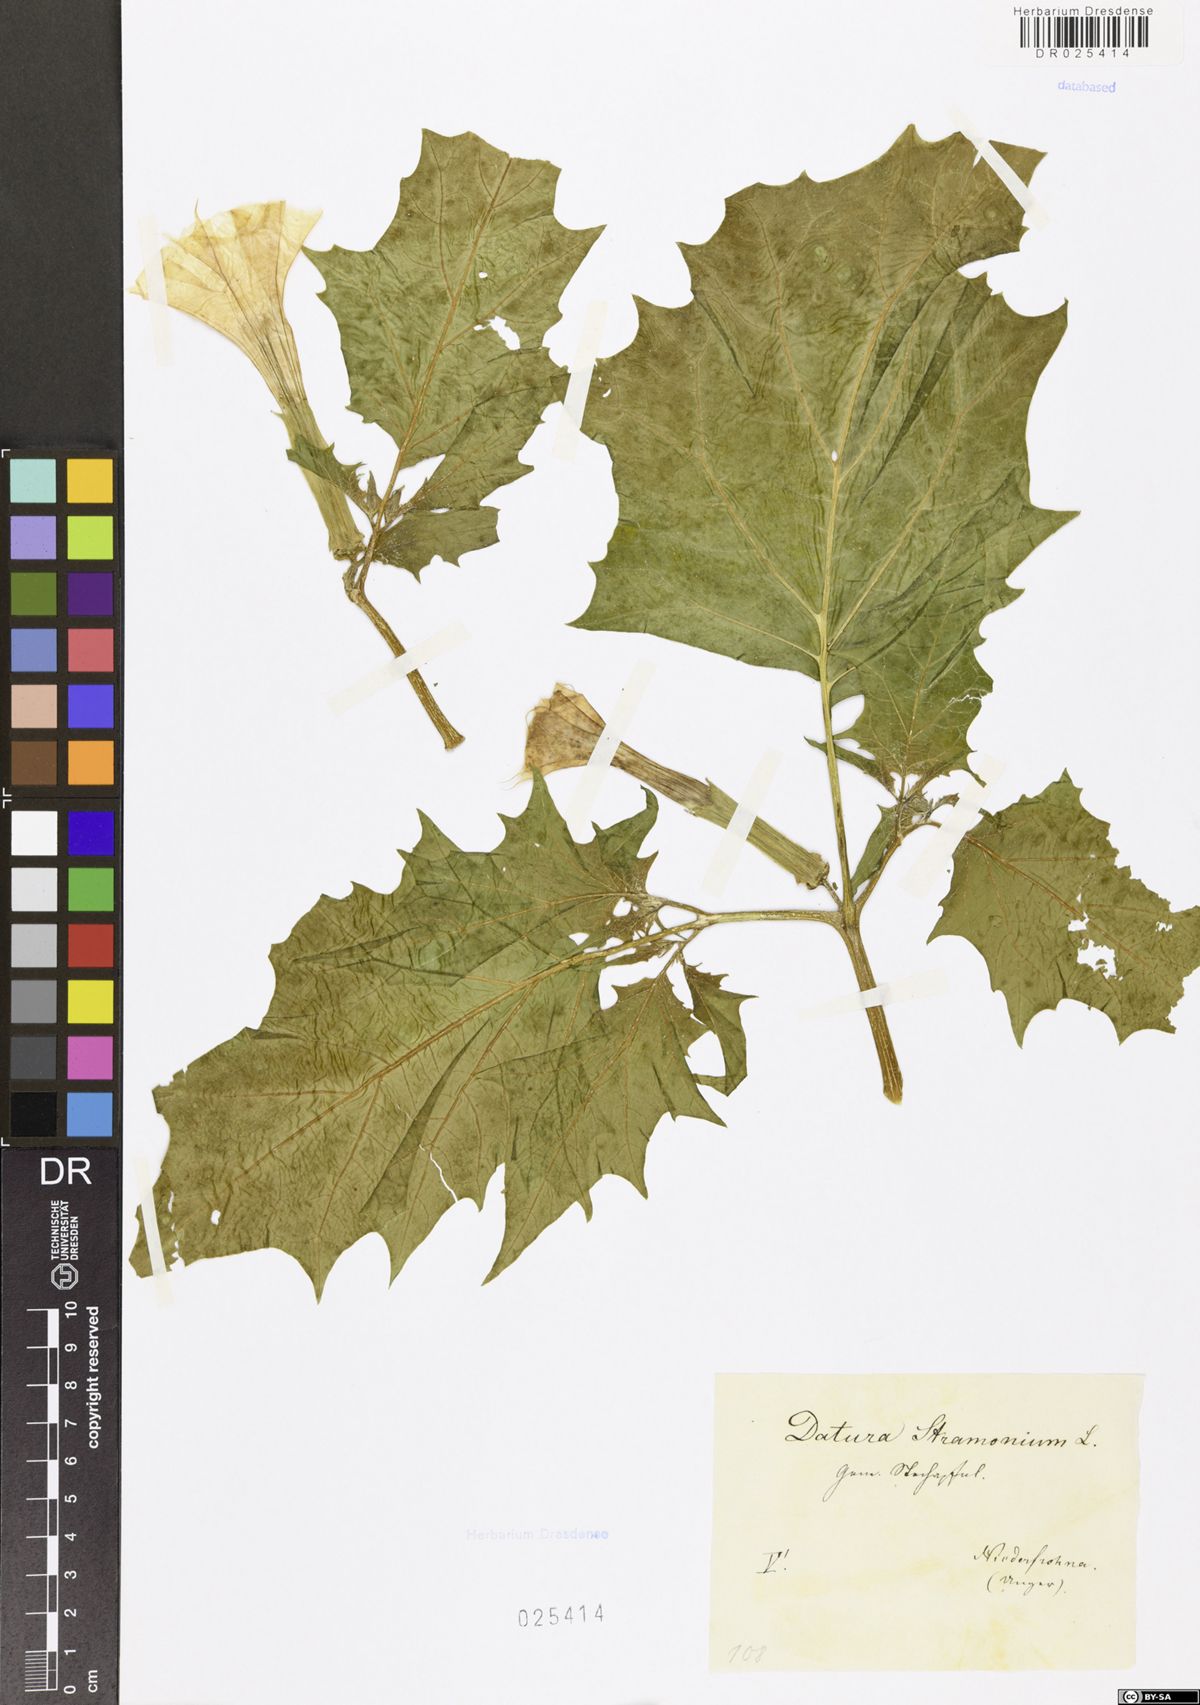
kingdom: Plantae
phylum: Tracheophyta
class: Magnoliopsida
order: Solanales
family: Solanaceae
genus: Datura
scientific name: Datura stramonium
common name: Thorn-apple
